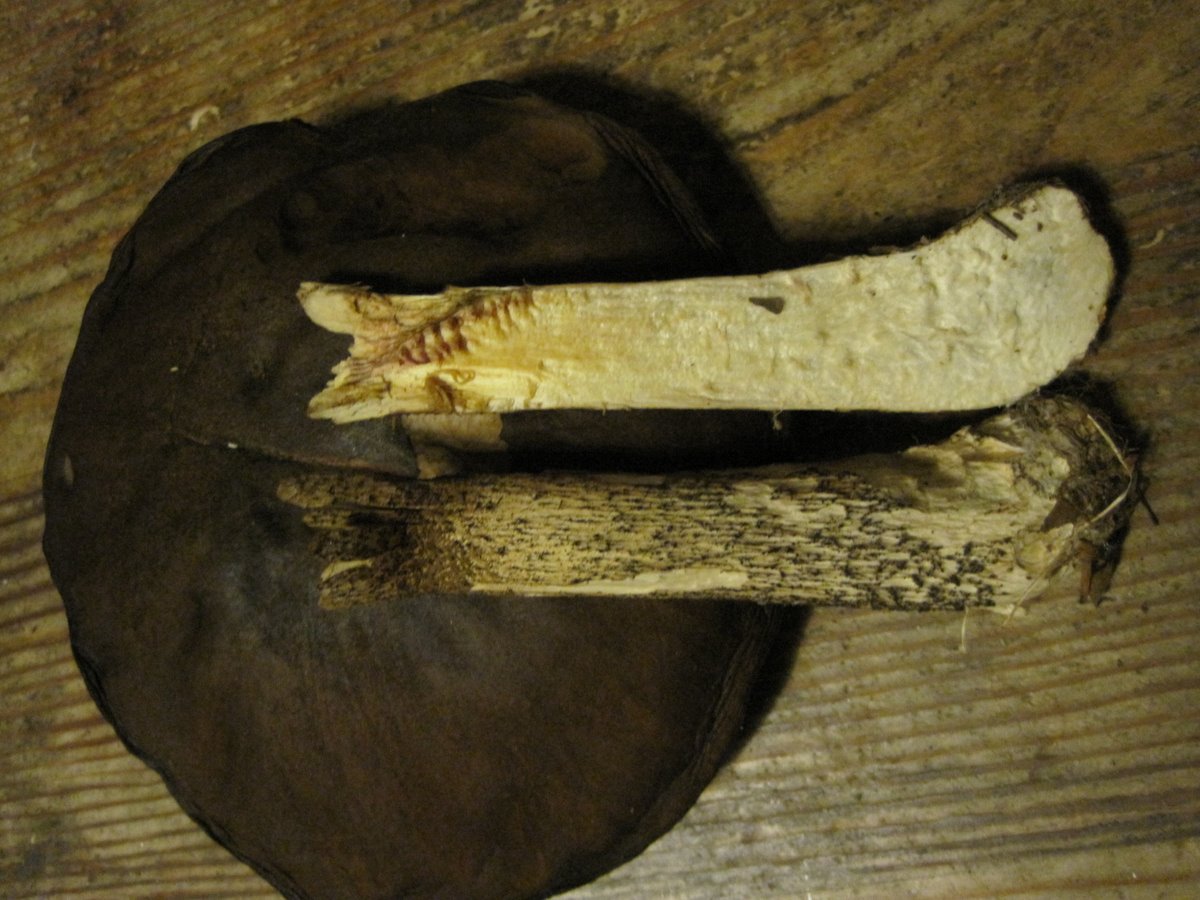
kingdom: Fungi
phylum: Basidiomycota
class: Agaricomycetes
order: Boletales
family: Boletaceae
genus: Leccinum
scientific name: Leccinum scabrum
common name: brun skælrørhat
